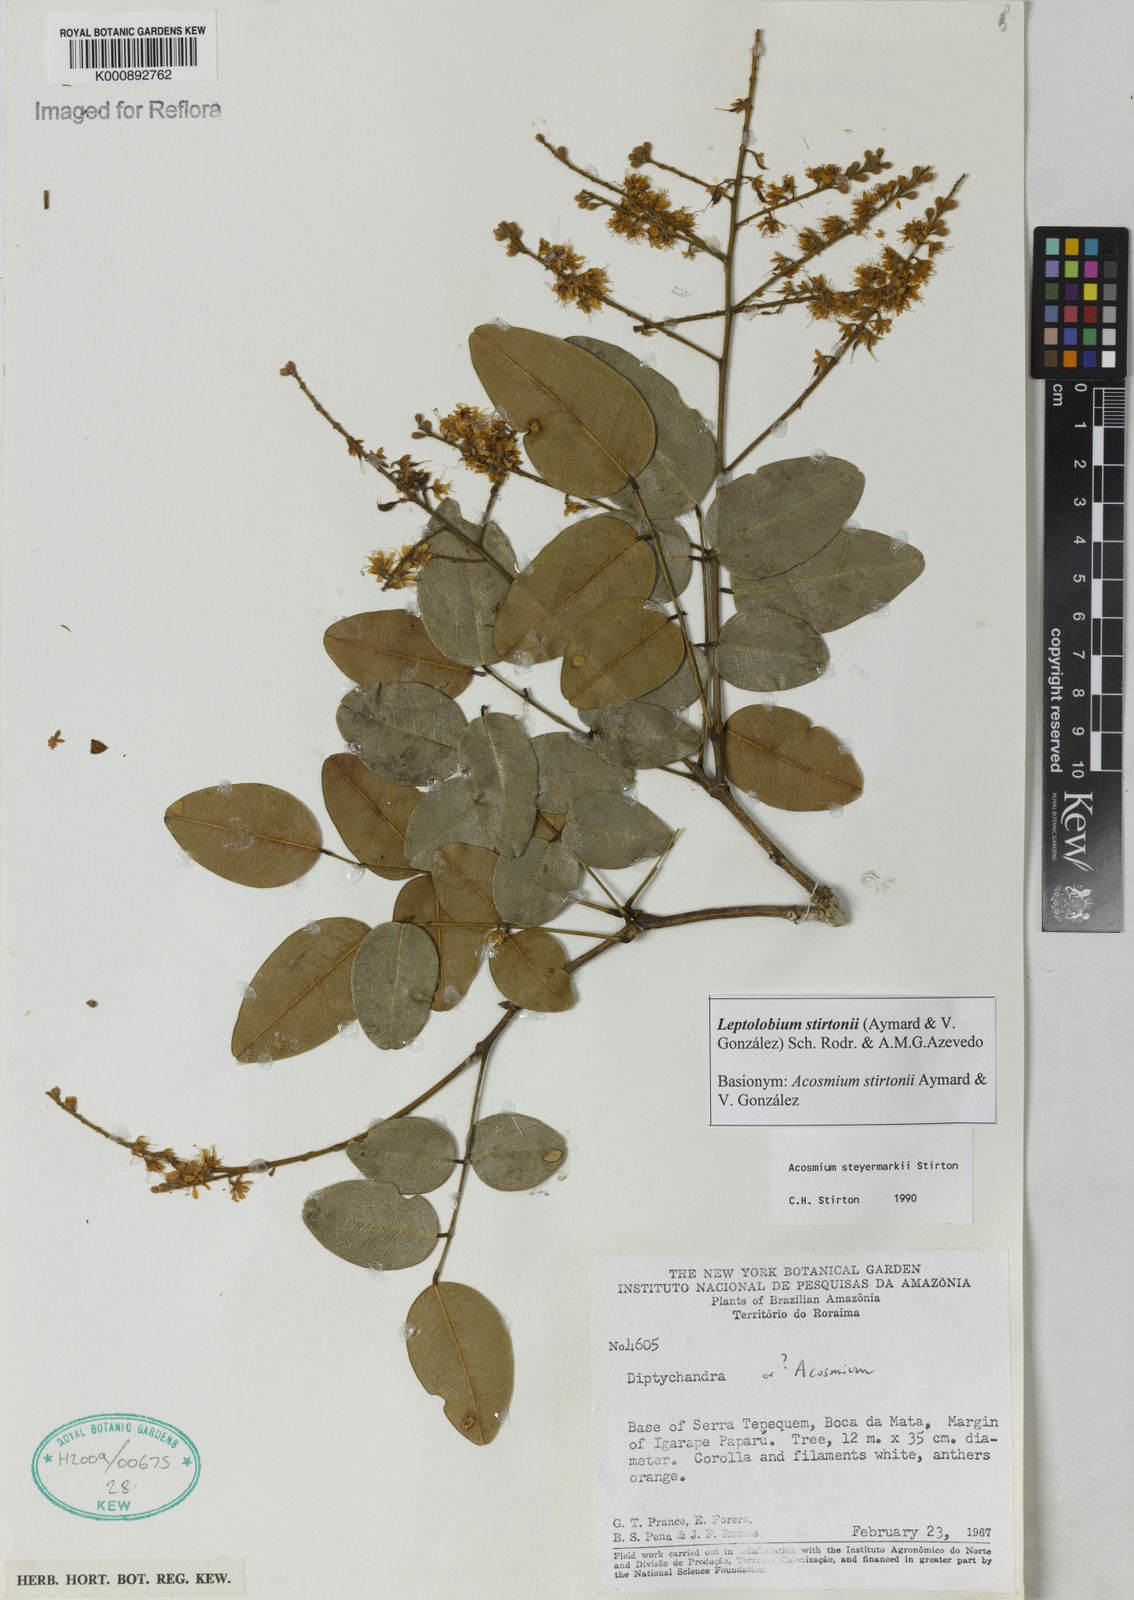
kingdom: Plantae
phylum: Tracheophyta
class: Magnoliopsida
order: Fabales
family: Fabaceae
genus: Leptolobium
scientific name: Leptolobium
